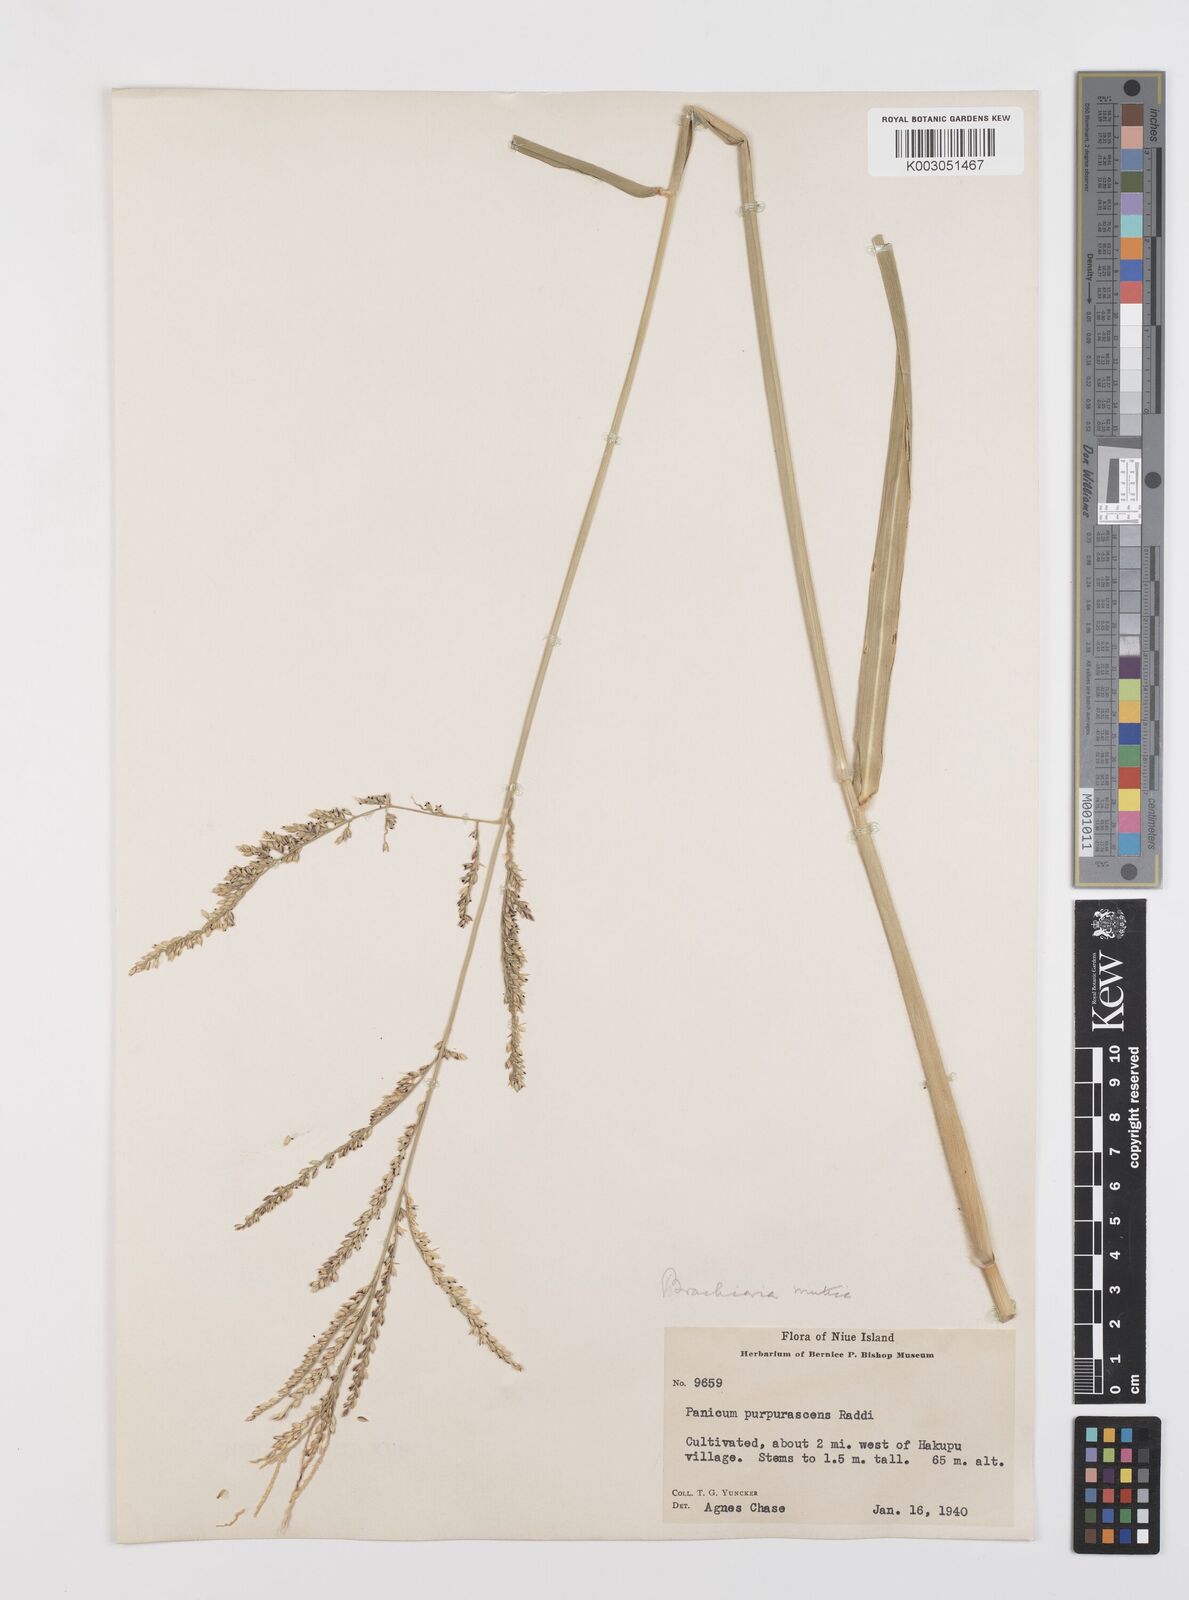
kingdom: Plantae
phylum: Tracheophyta
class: Liliopsida
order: Poales
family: Poaceae
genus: Urochloa
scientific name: Urochloa mutica
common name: Para grass
